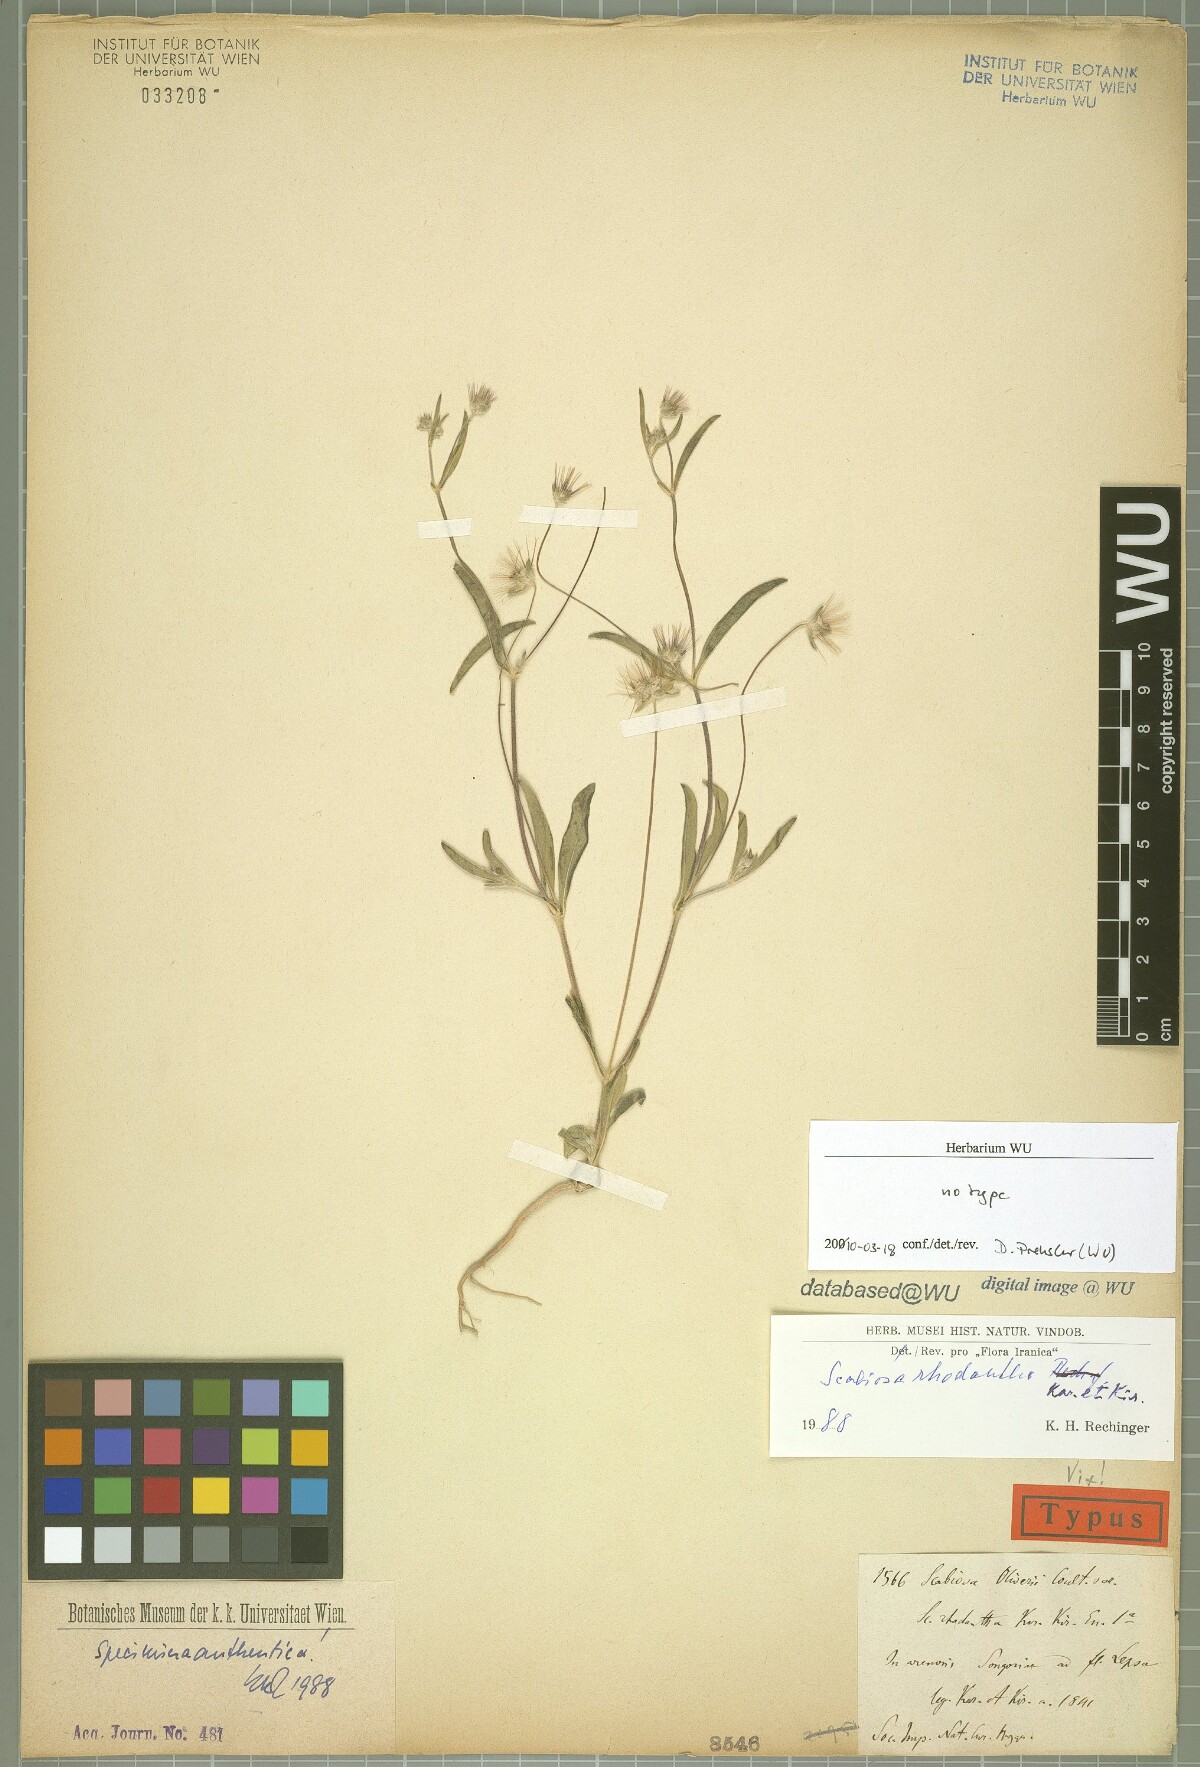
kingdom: Plantae
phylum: Tracheophyta
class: Magnoliopsida
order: Dipsacales
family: Caprifoliaceae
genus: Lomelosia
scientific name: Lomelosia rhodantha
